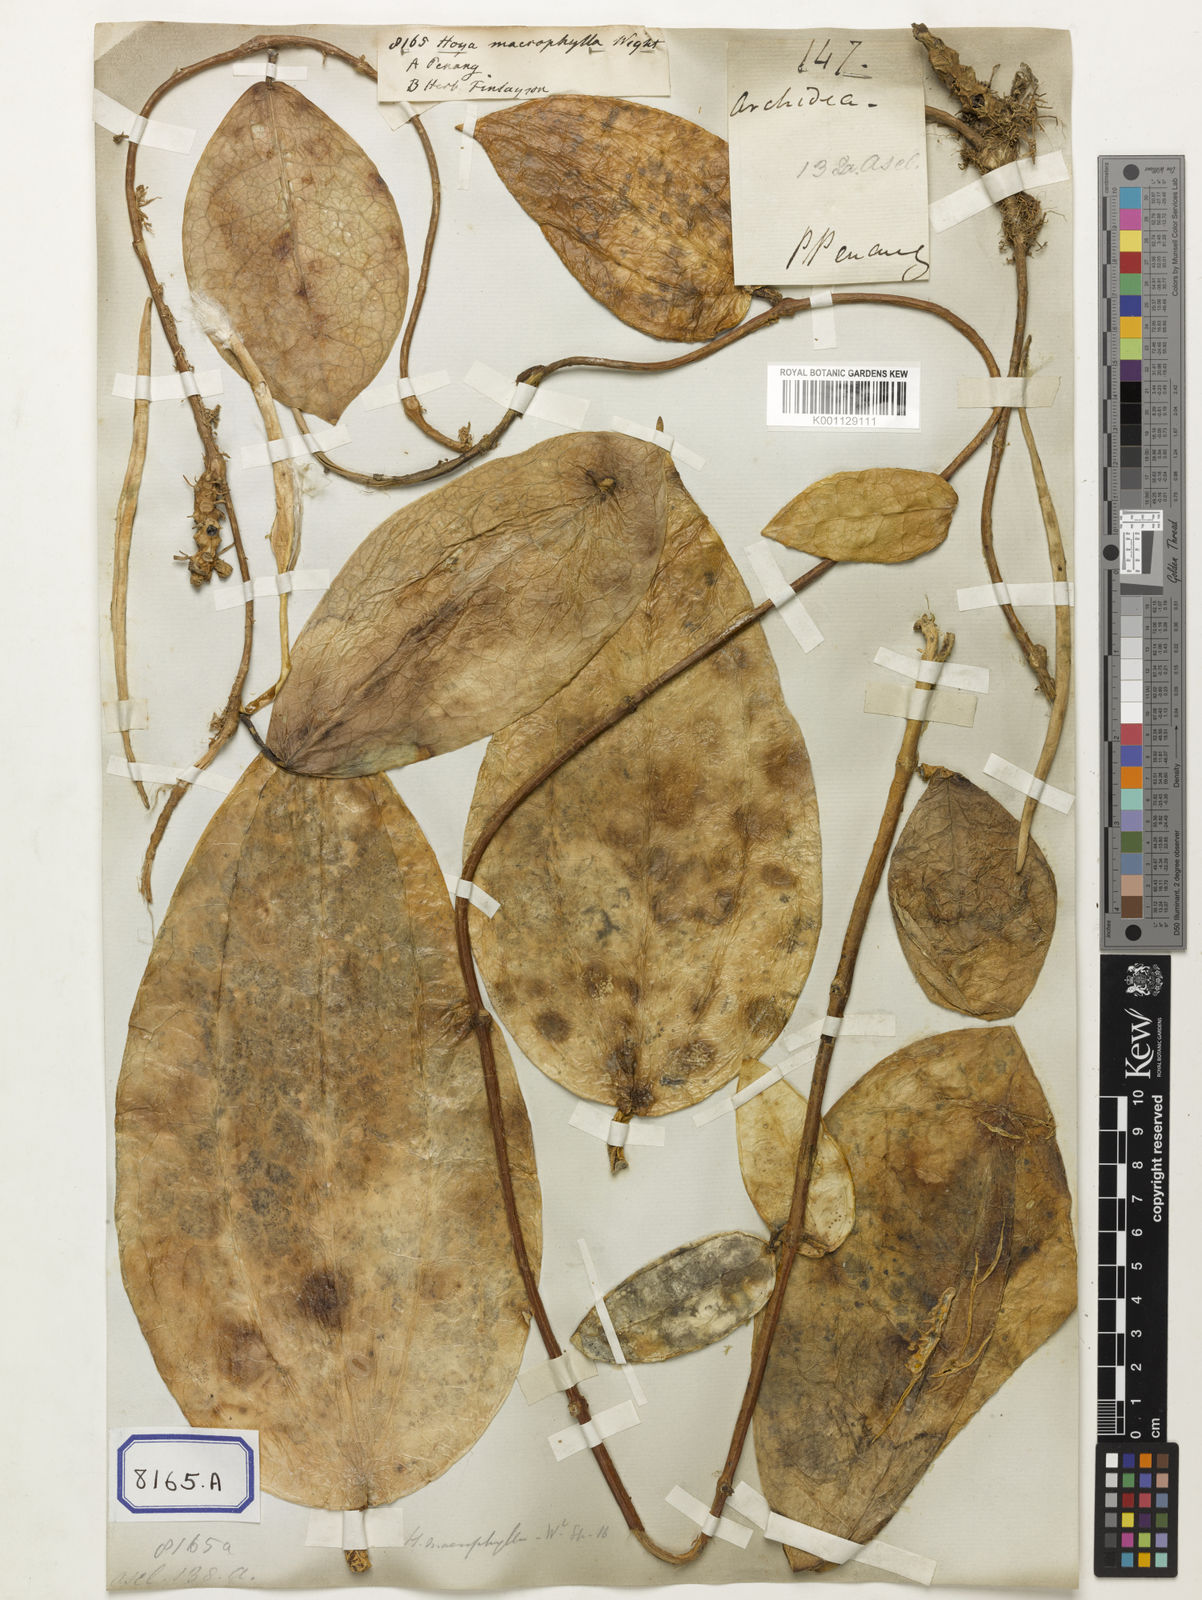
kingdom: Plantae
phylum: Tracheophyta
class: Magnoliopsida
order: Gentianales
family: Apocynaceae
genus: Hoya
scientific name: Hoya latifolia
